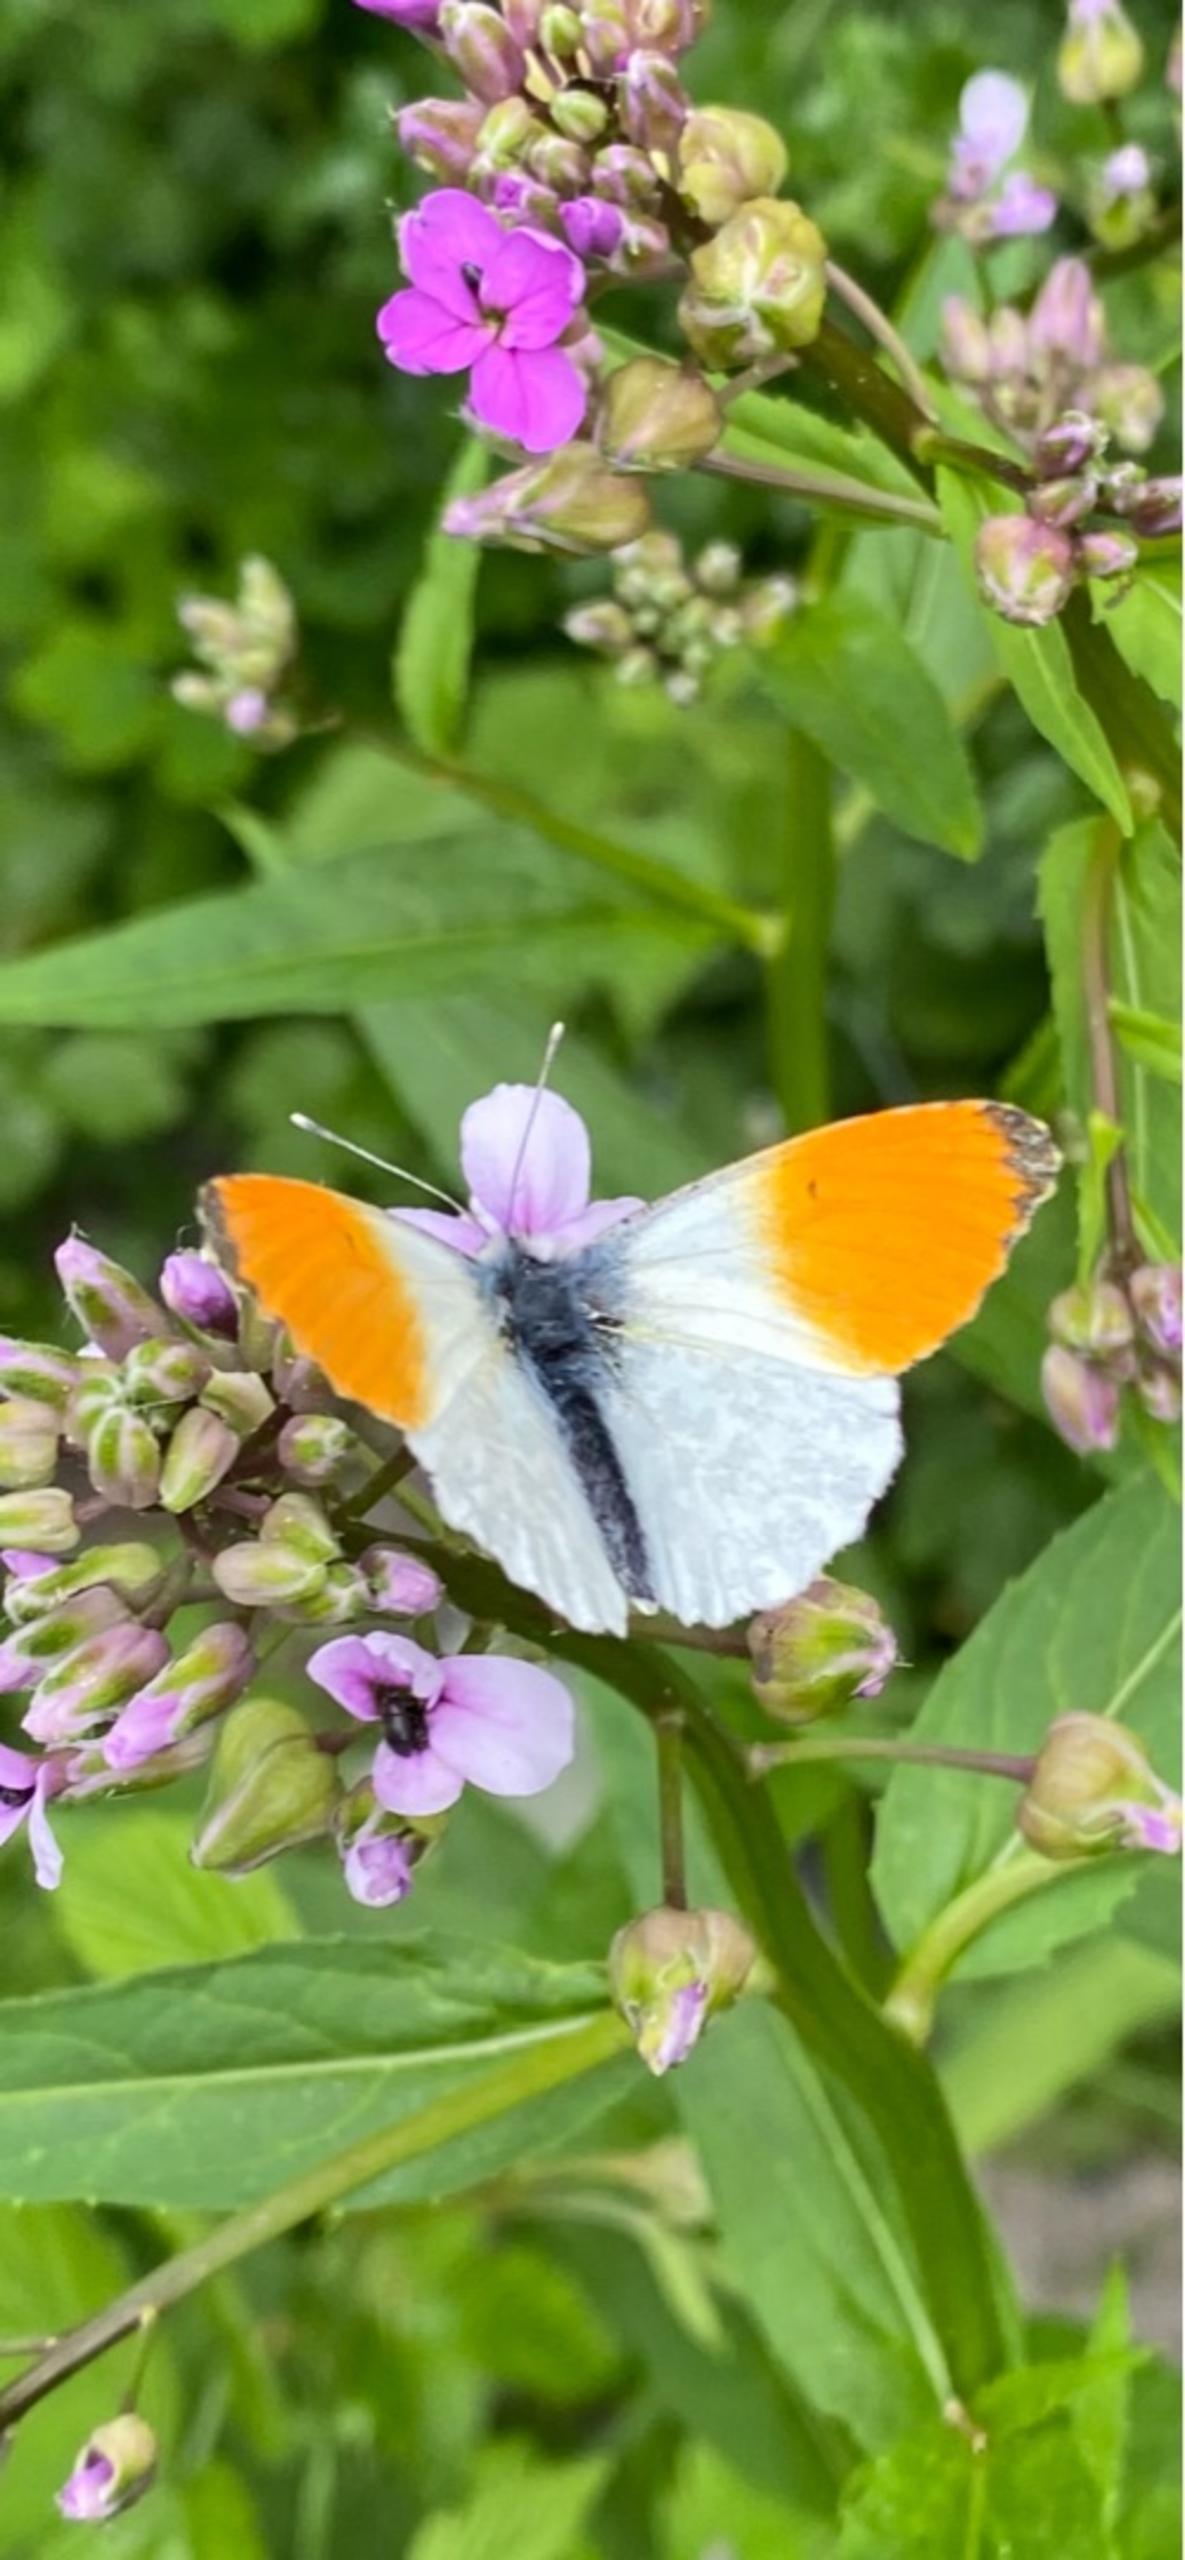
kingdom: Animalia
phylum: Arthropoda
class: Insecta
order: Lepidoptera
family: Pieridae
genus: Anthocharis
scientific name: Anthocharis cardamines
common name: Aurora
